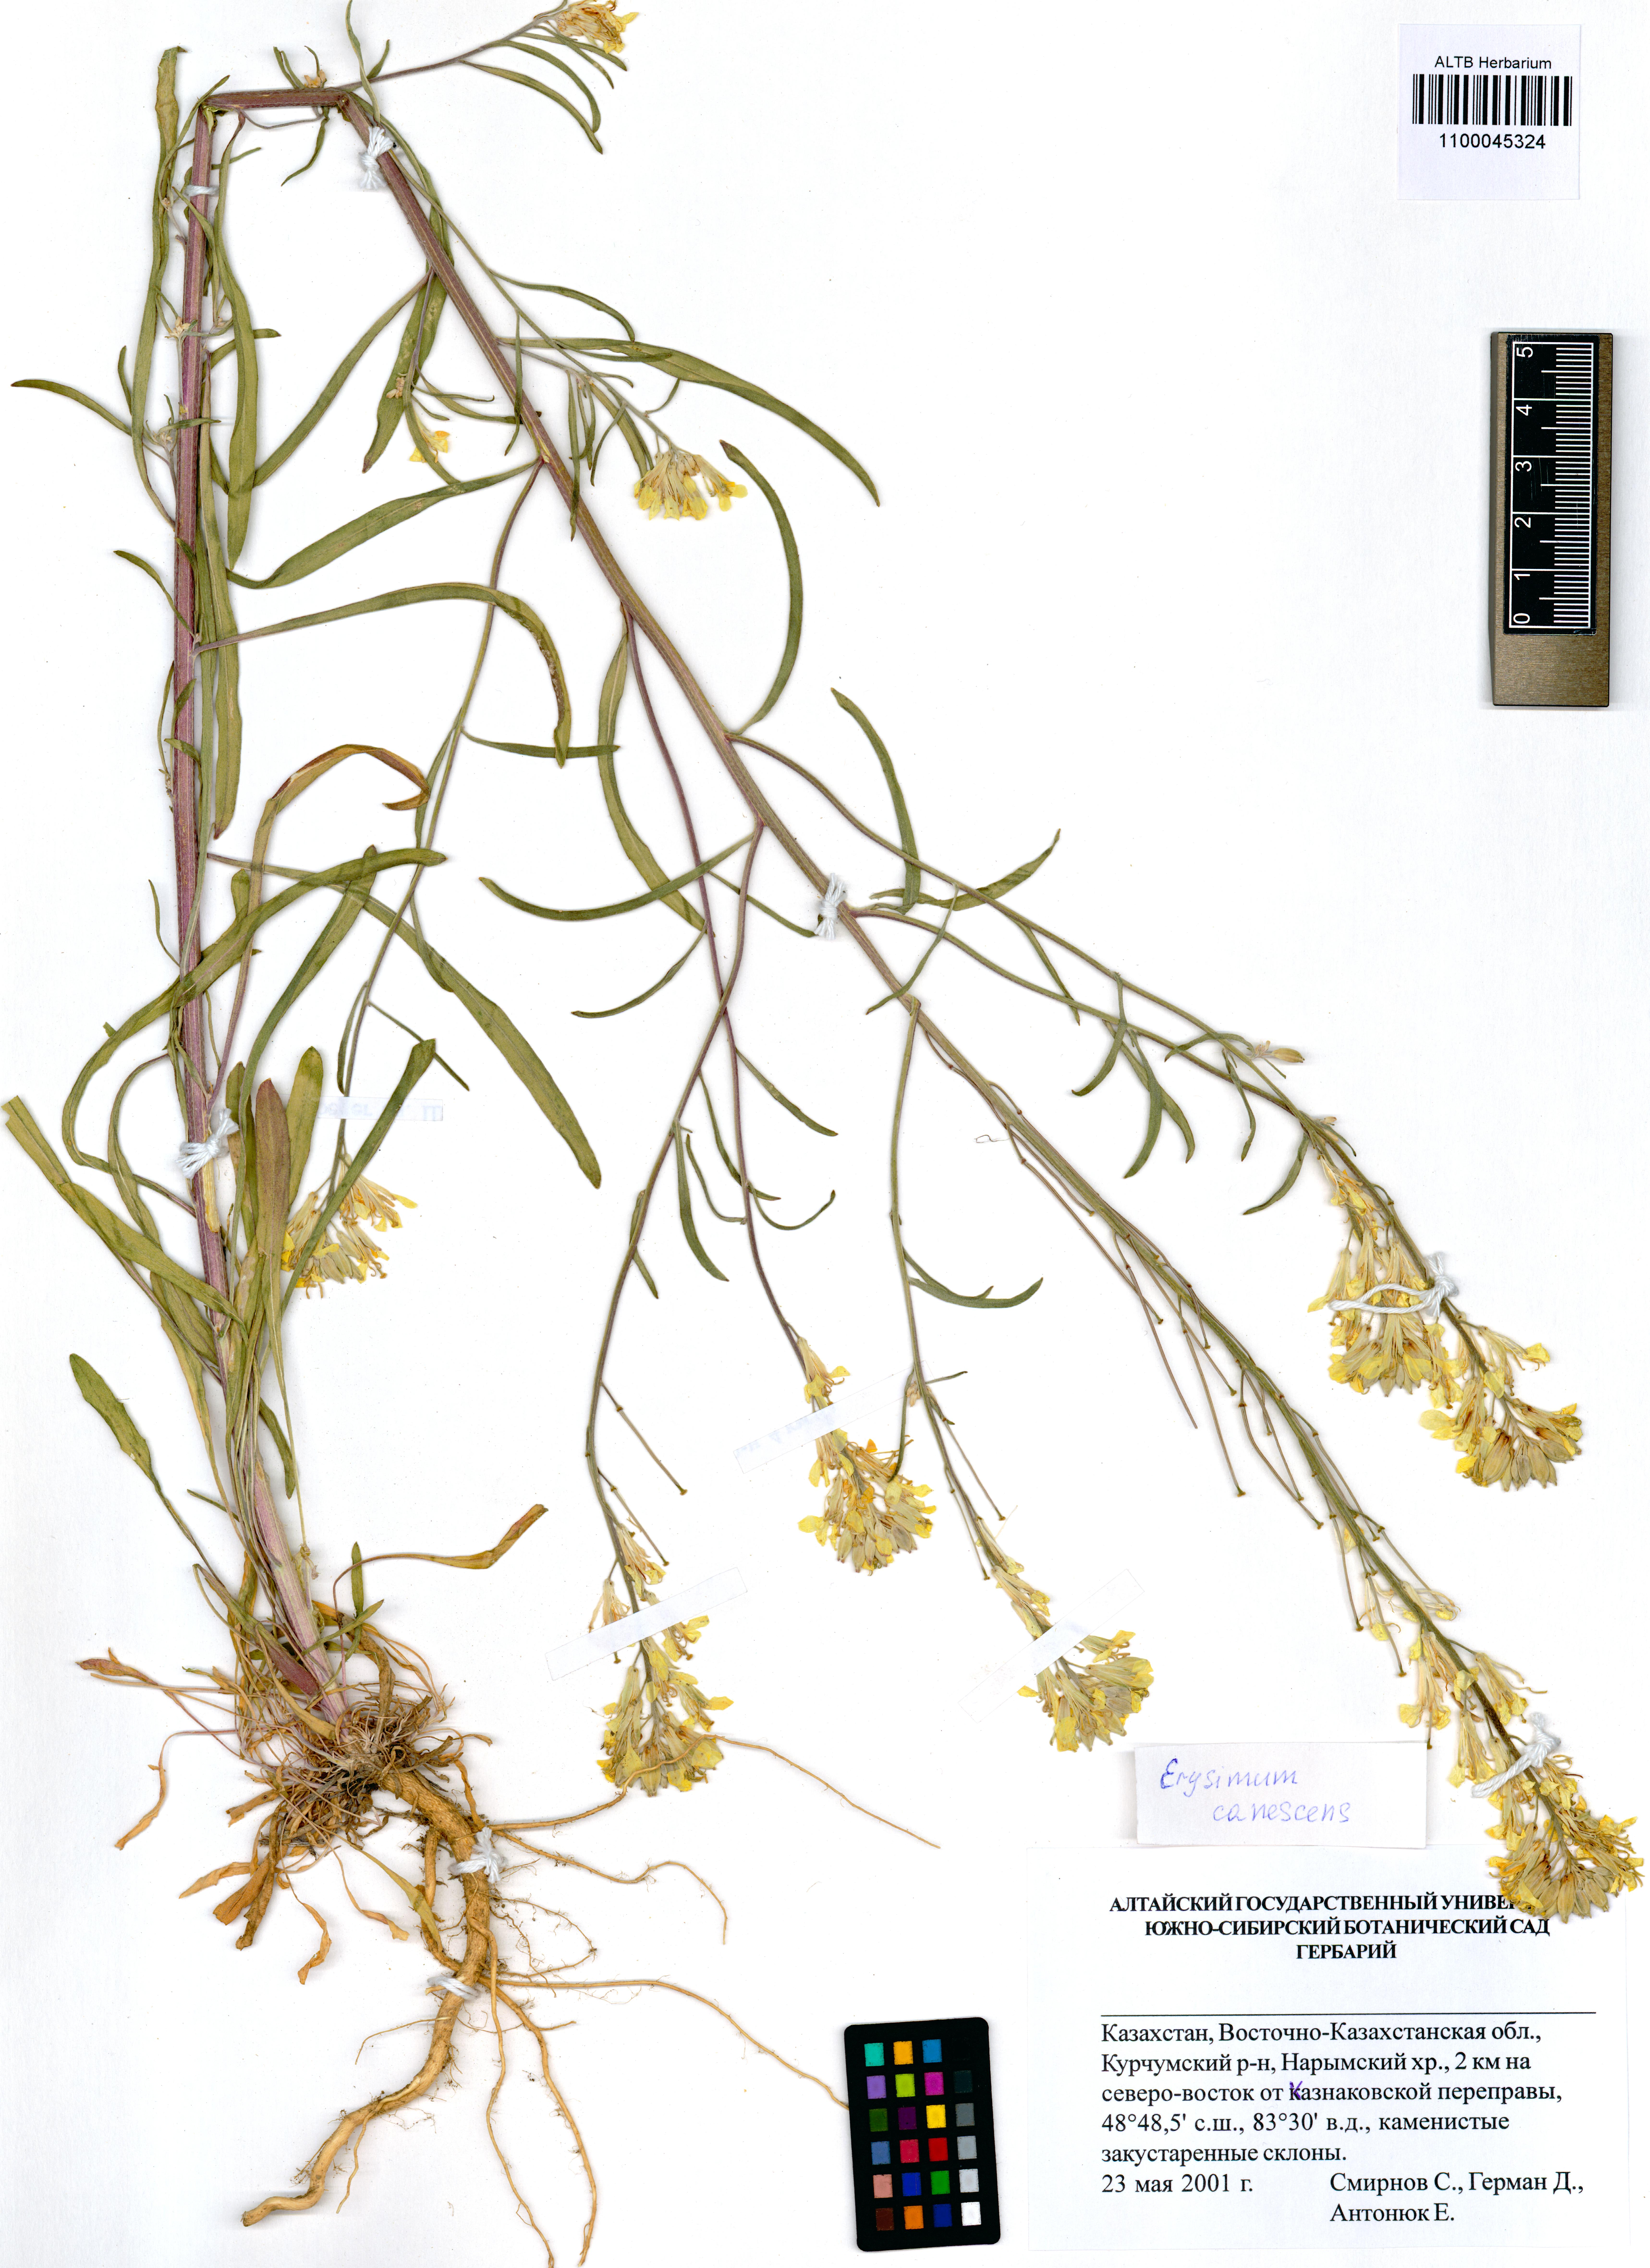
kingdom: Plantae
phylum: Tracheophyta
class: Magnoliopsida
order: Brassicales
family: Brassicaceae
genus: Erysimum
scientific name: Erysimum canescens
